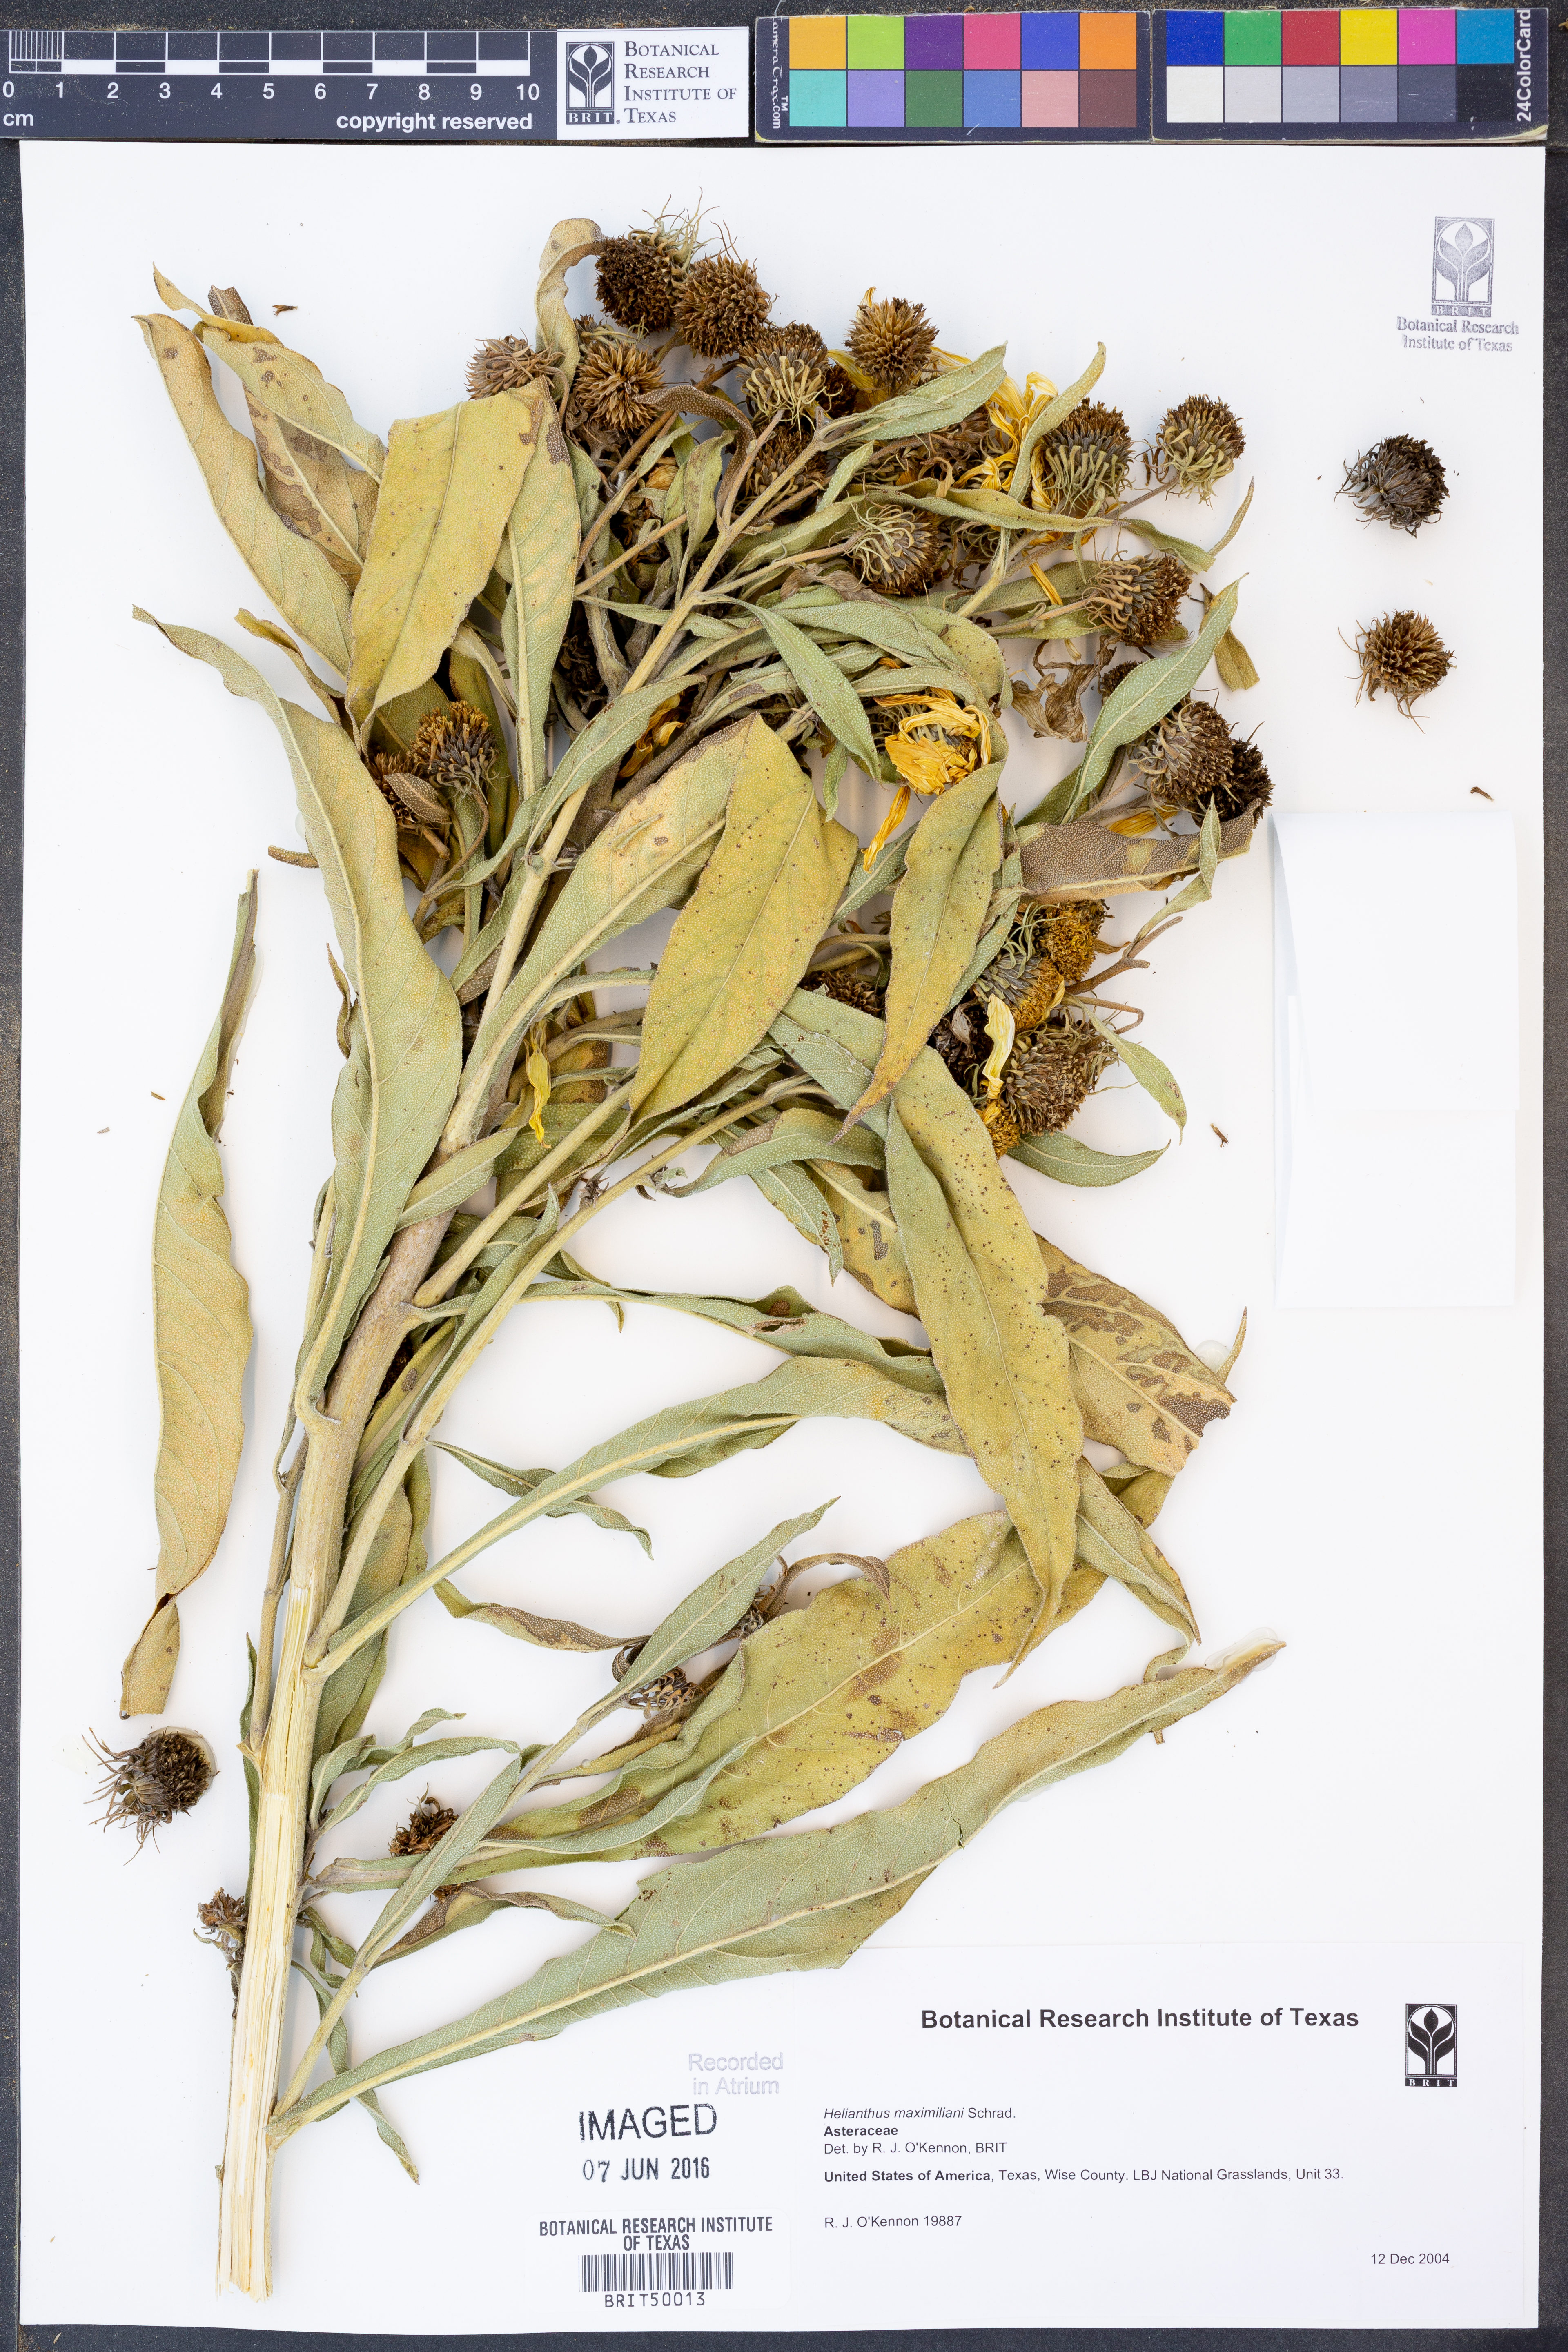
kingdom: Plantae
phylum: Tracheophyta
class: Magnoliopsida
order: Asterales
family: Asteraceae
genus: Helianthus
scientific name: Helianthus maximiliani
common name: Maximilian's sunflower
